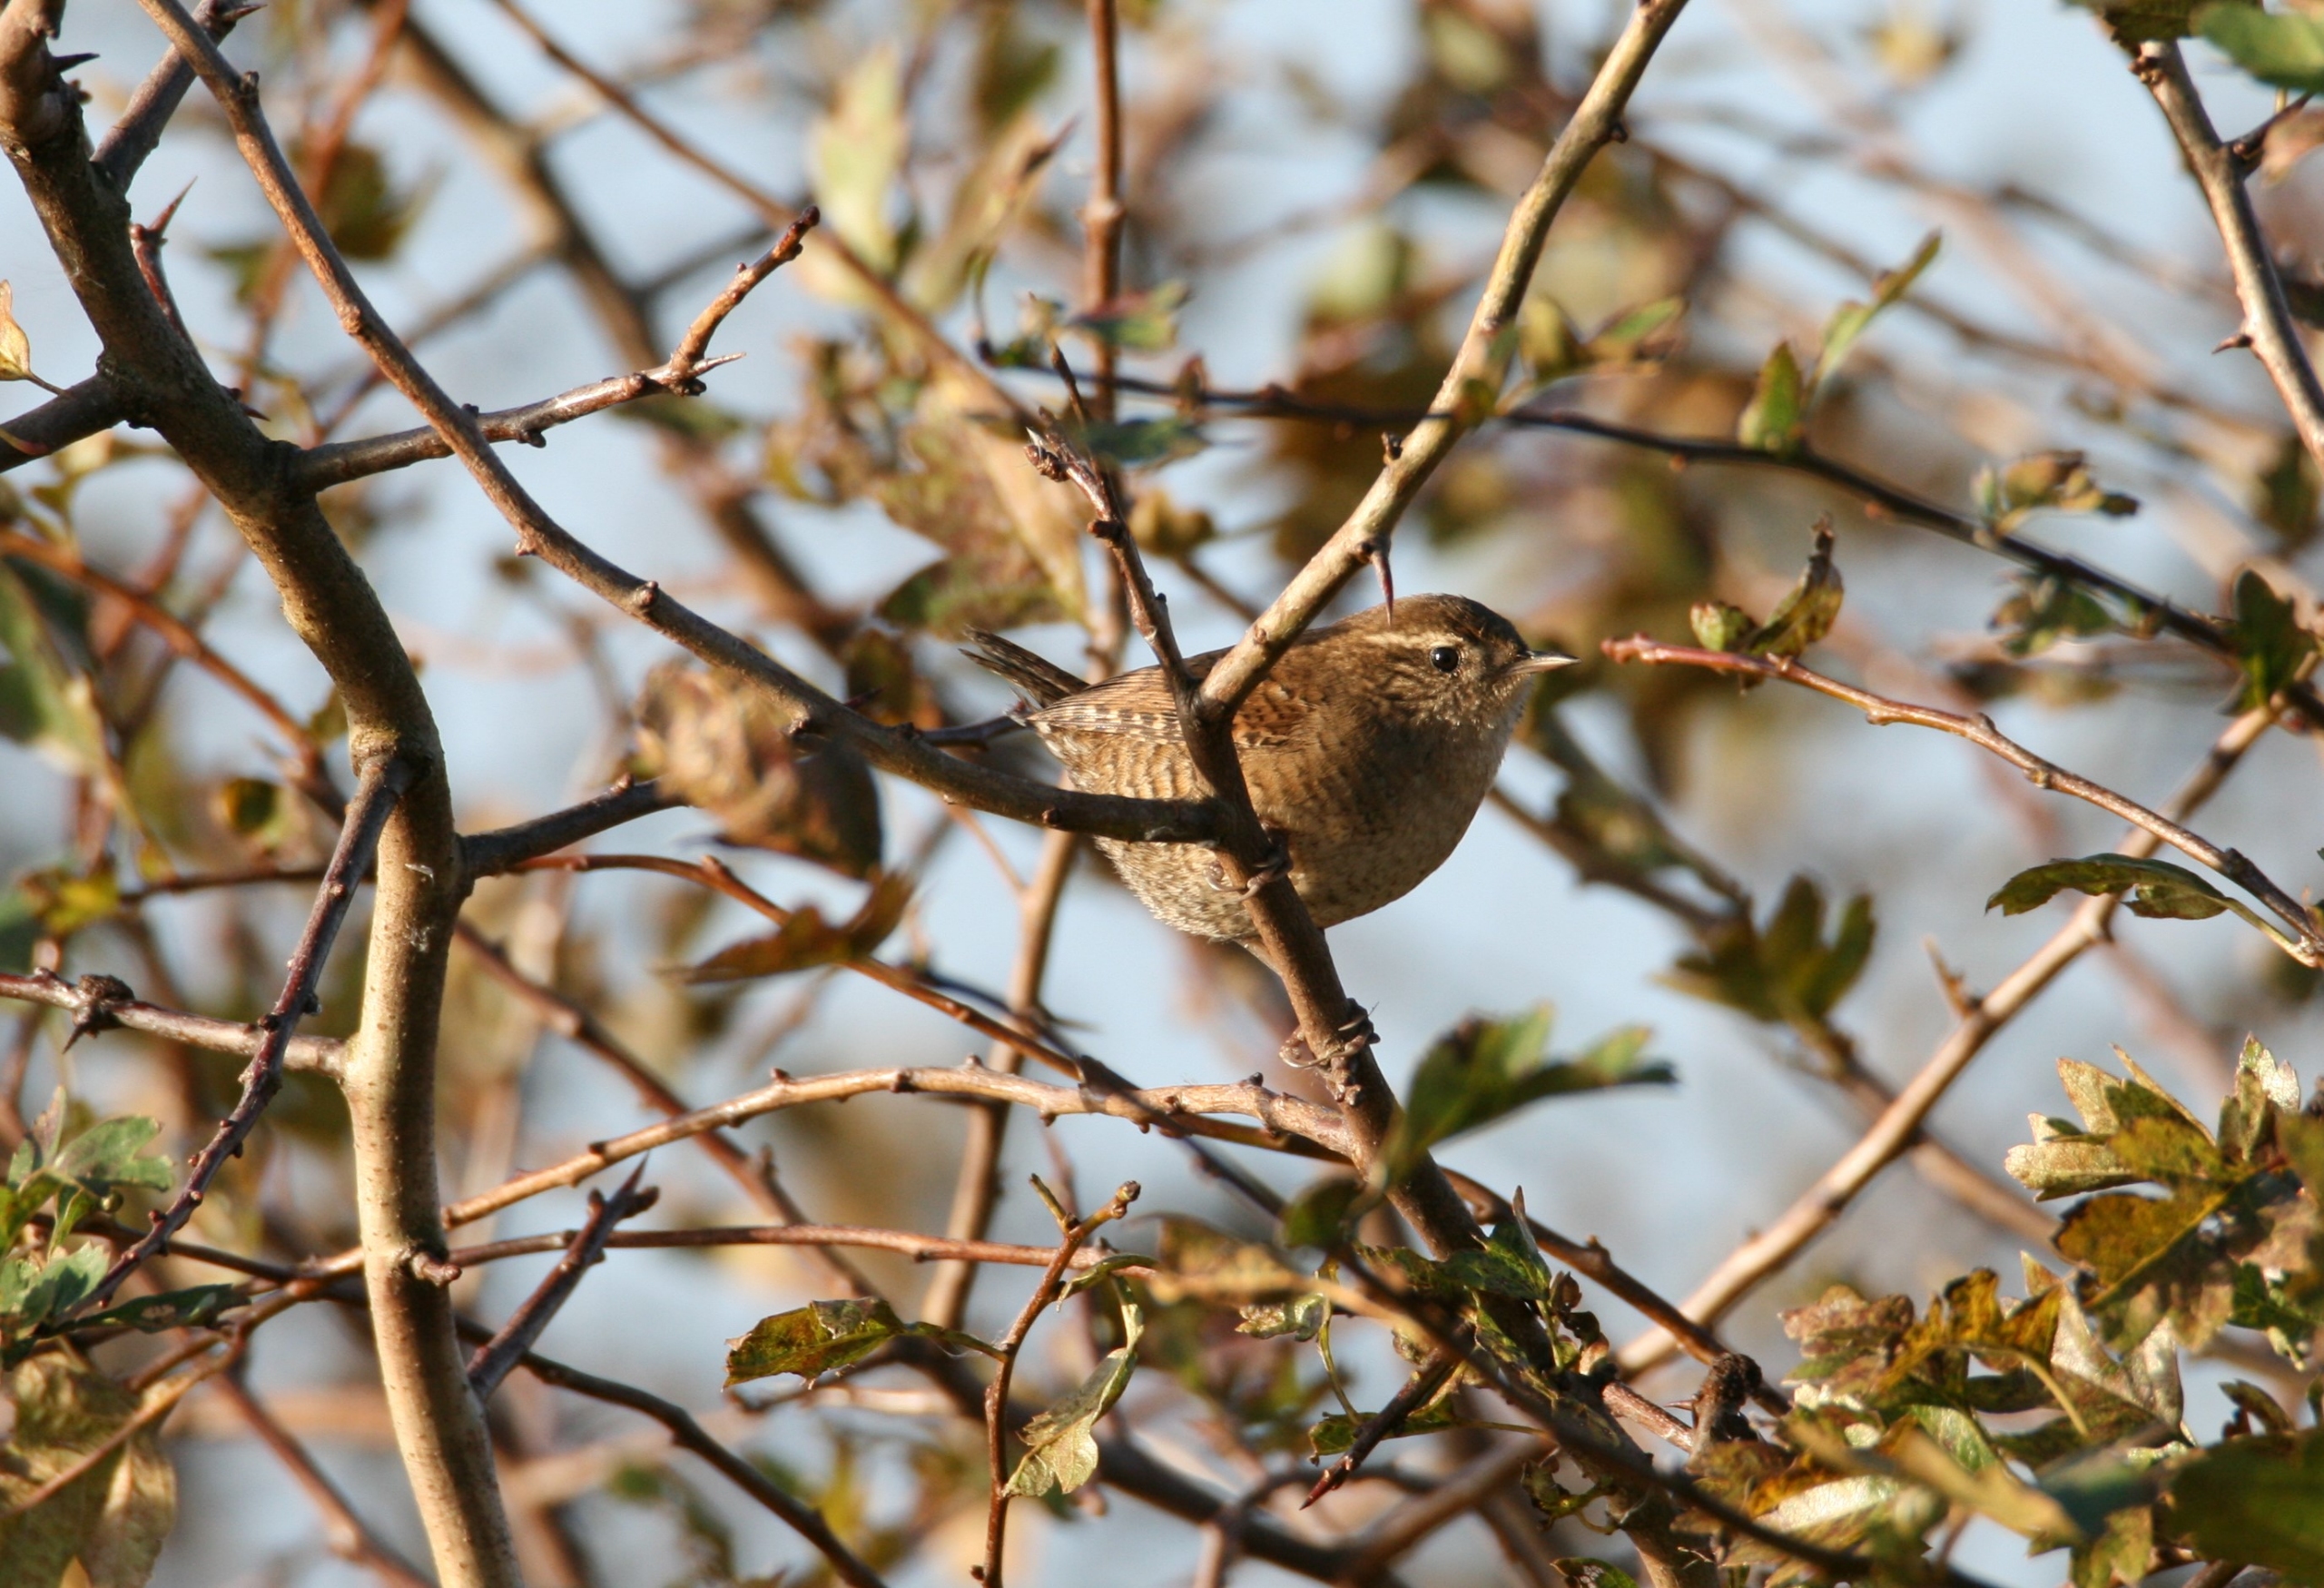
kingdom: Animalia
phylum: Chordata
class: Aves
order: Passeriformes
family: Troglodytidae
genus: Troglodytes
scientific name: Troglodytes troglodytes
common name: Gærdesmutte
